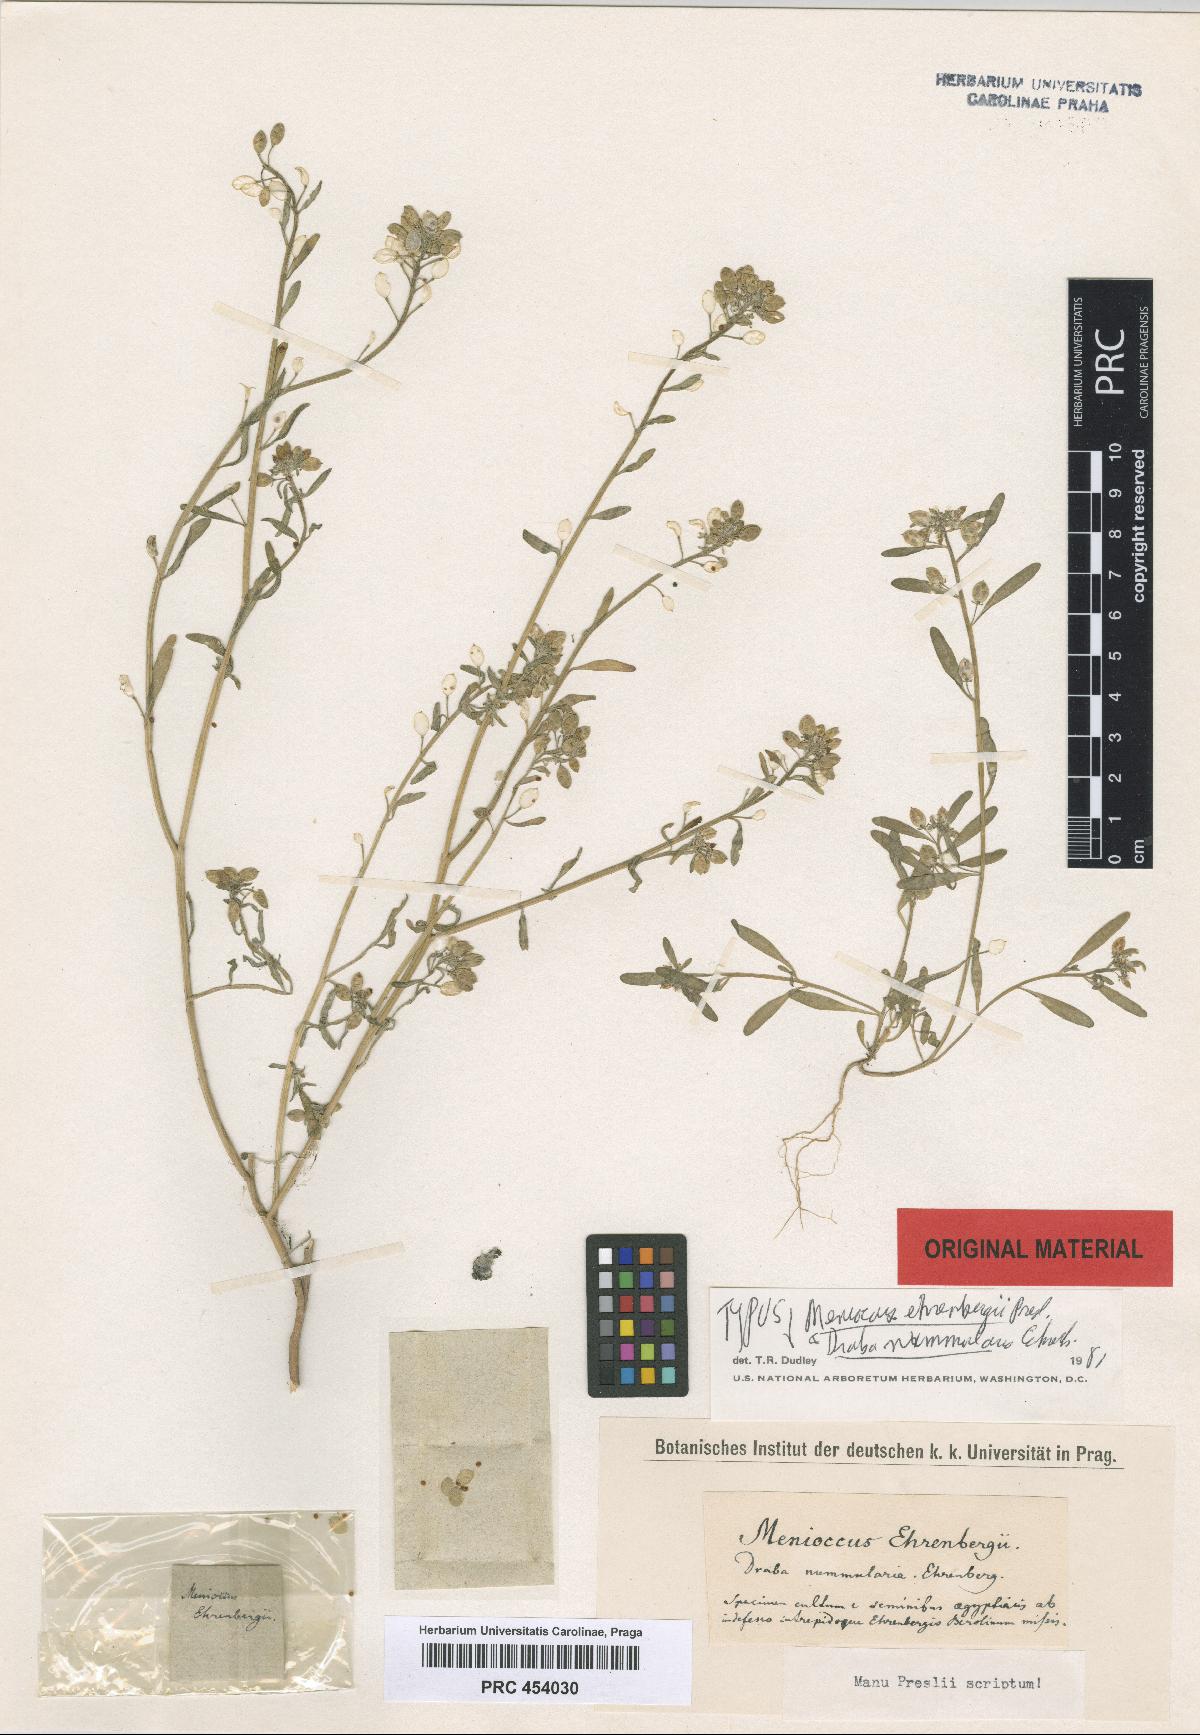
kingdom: Plantae
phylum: Tracheophyta
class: Magnoliopsida
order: Brassicales
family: Brassicaceae
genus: Lobularia
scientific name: Lobularia libyca
